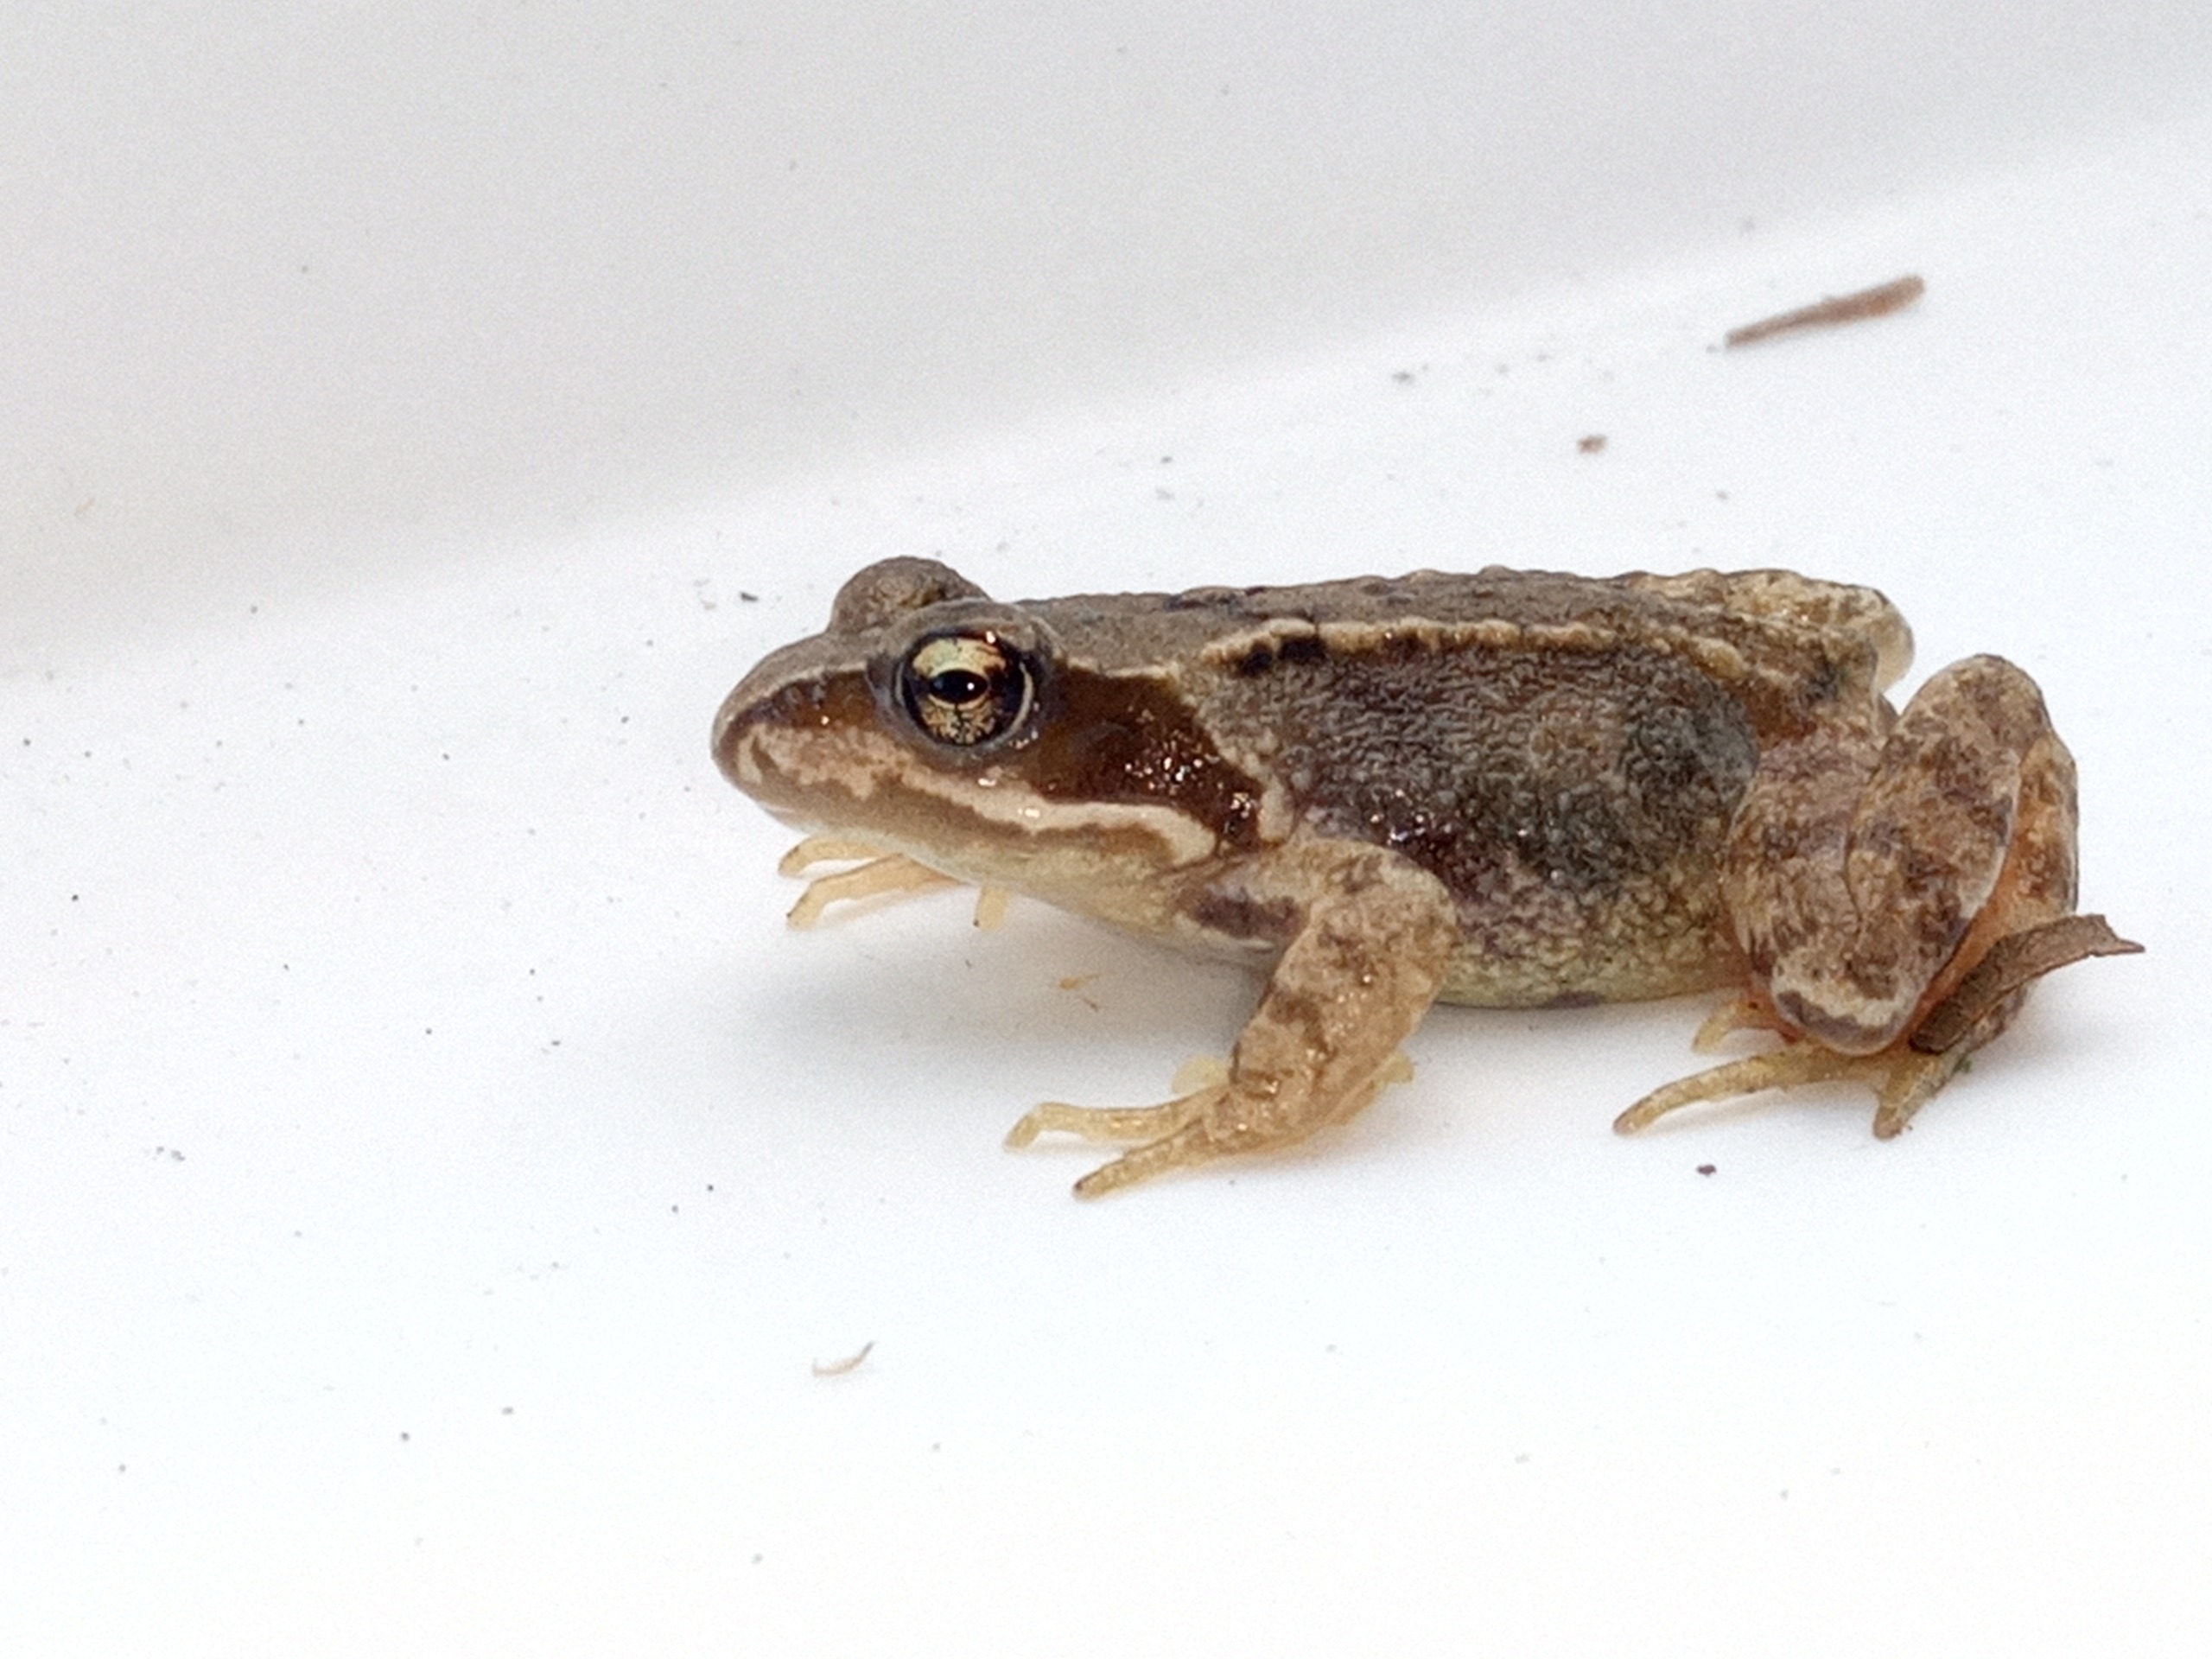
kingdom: Animalia
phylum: Chordata
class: Amphibia
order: Anura
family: Ranidae
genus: Rana
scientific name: Rana temporaria
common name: Butsnudet frø
